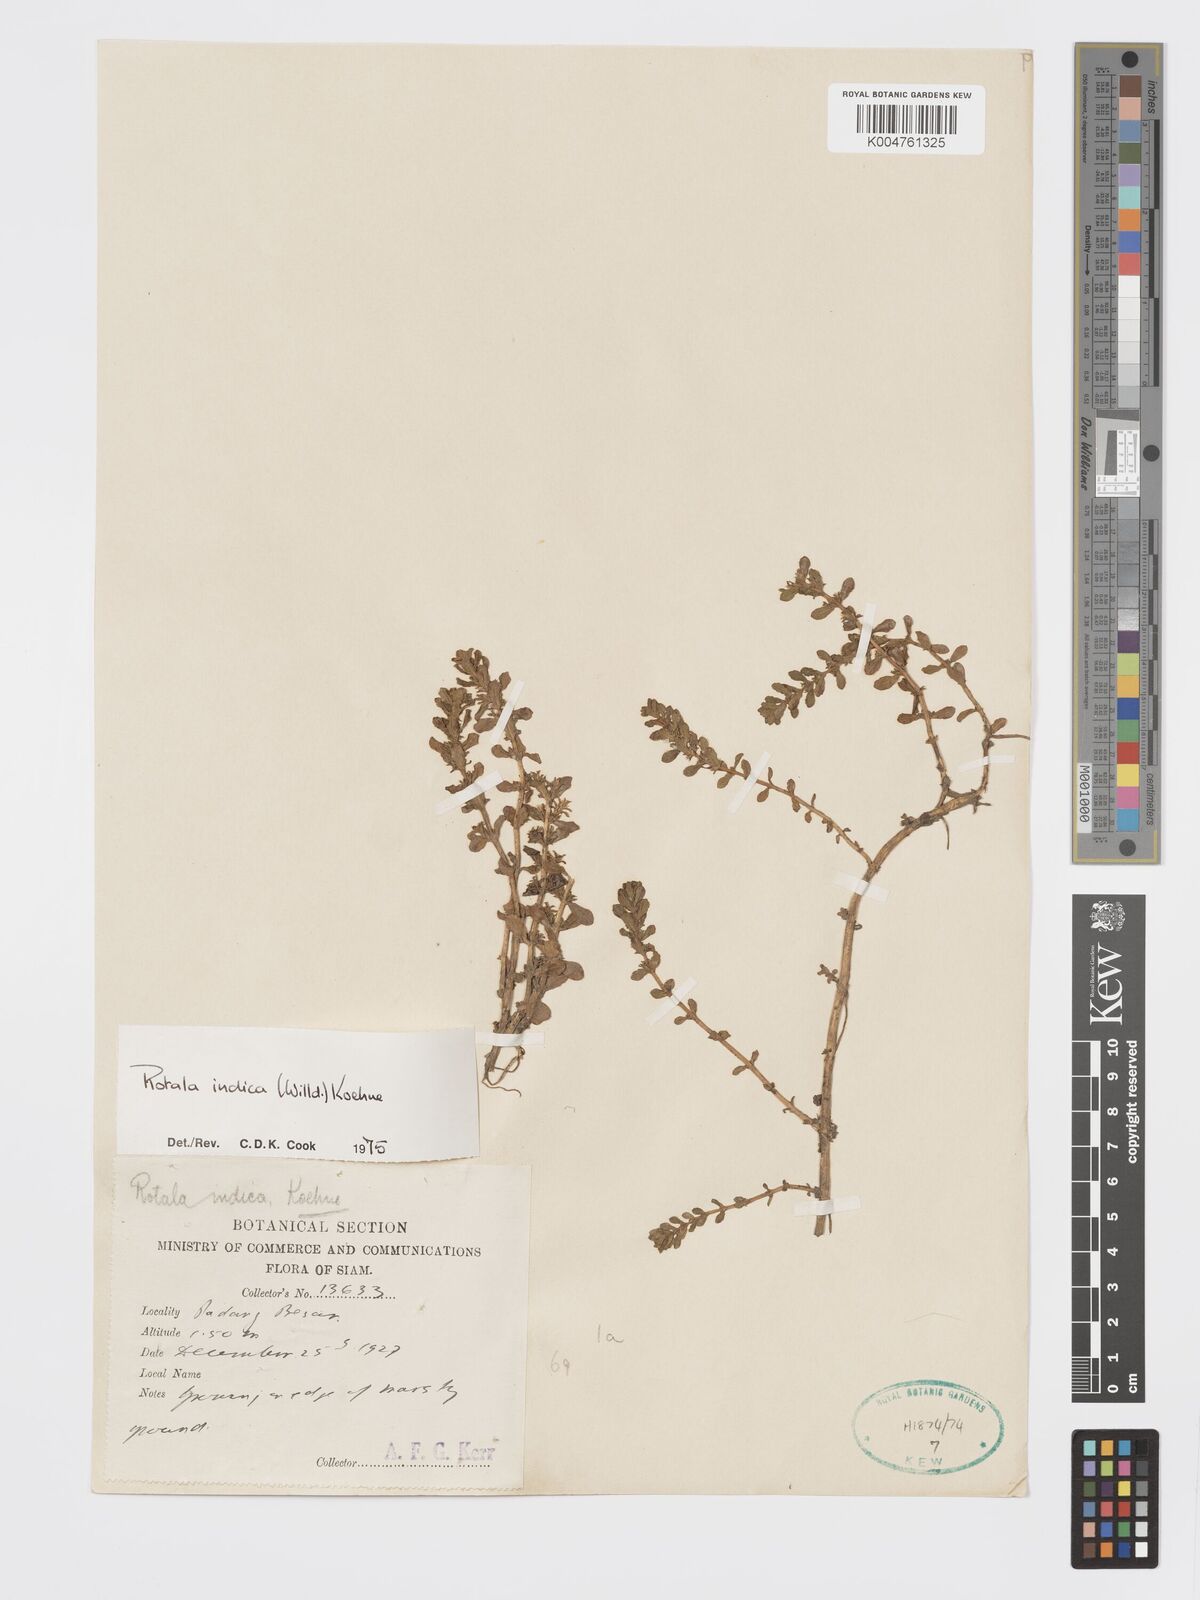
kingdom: Plantae
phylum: Tracheophyta
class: Magnoliopsida
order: Myrtales
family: Lythraceae
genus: Rotala
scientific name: Rotala indica
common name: Indian toothcup
